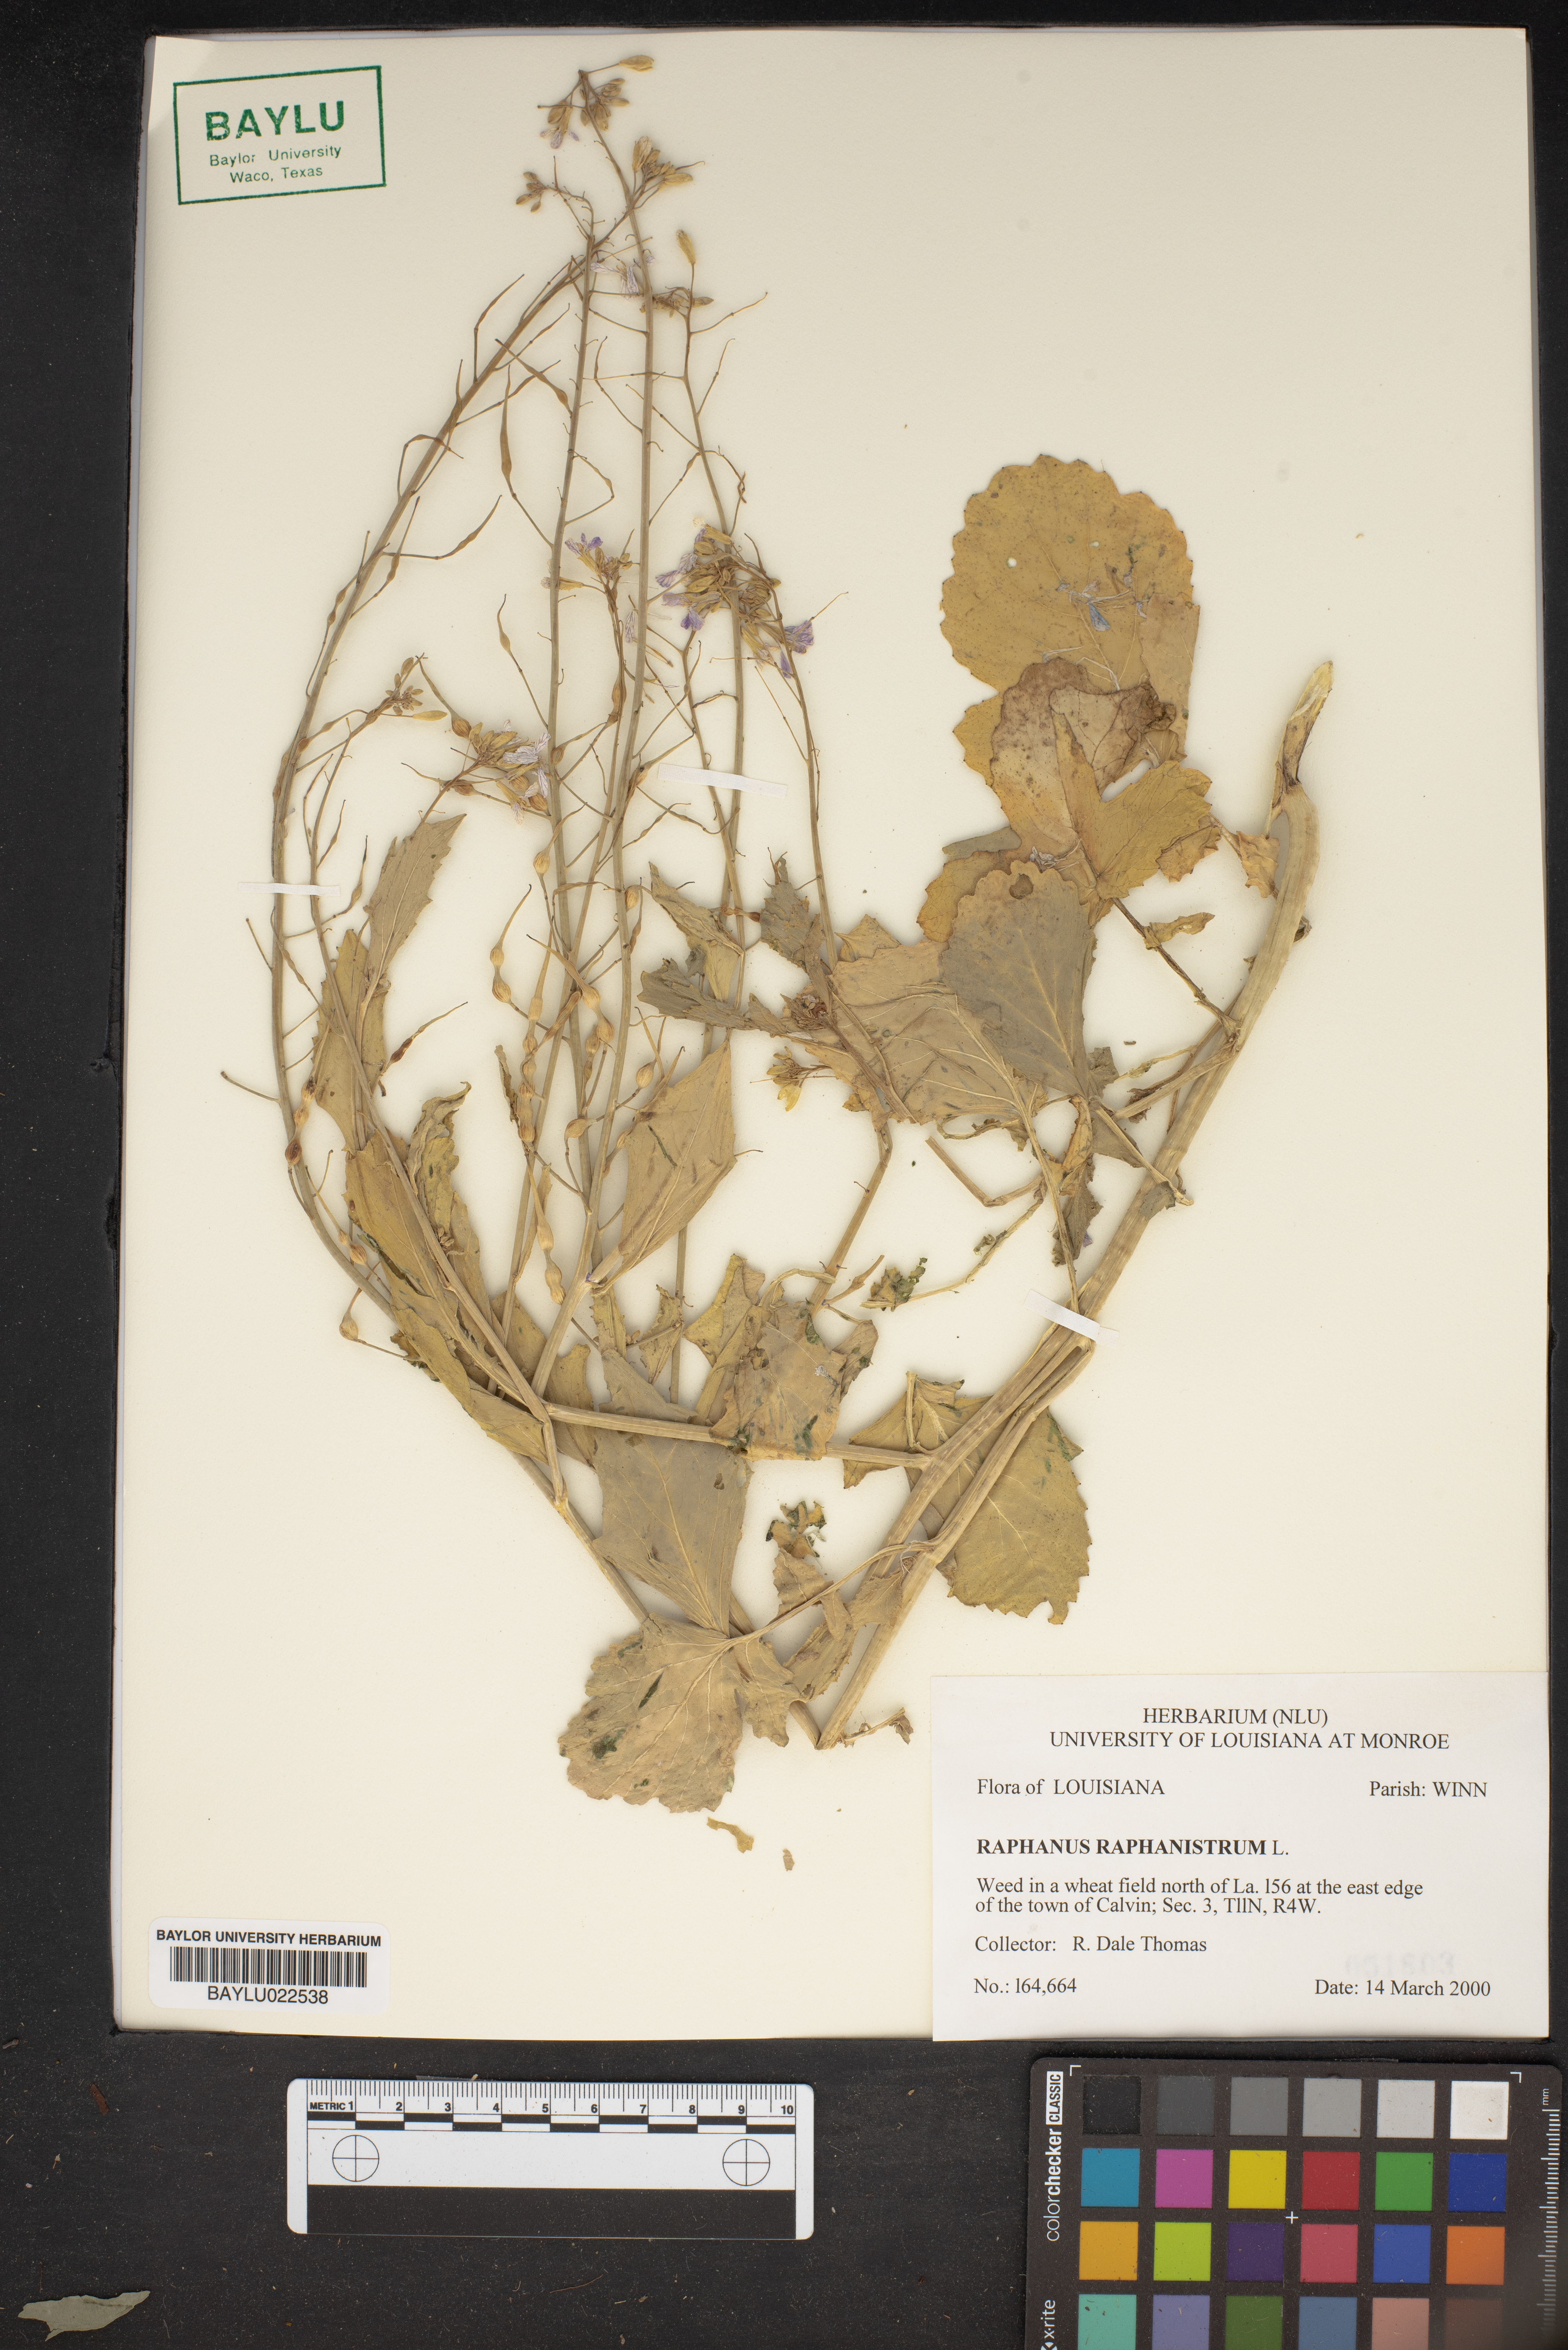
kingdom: Plantae
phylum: Tracheophyta
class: Magnoliopsida
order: Brassicales
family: Brassicaceae
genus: Raphanus
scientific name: Raphanus raphanistrum
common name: Wild radish
